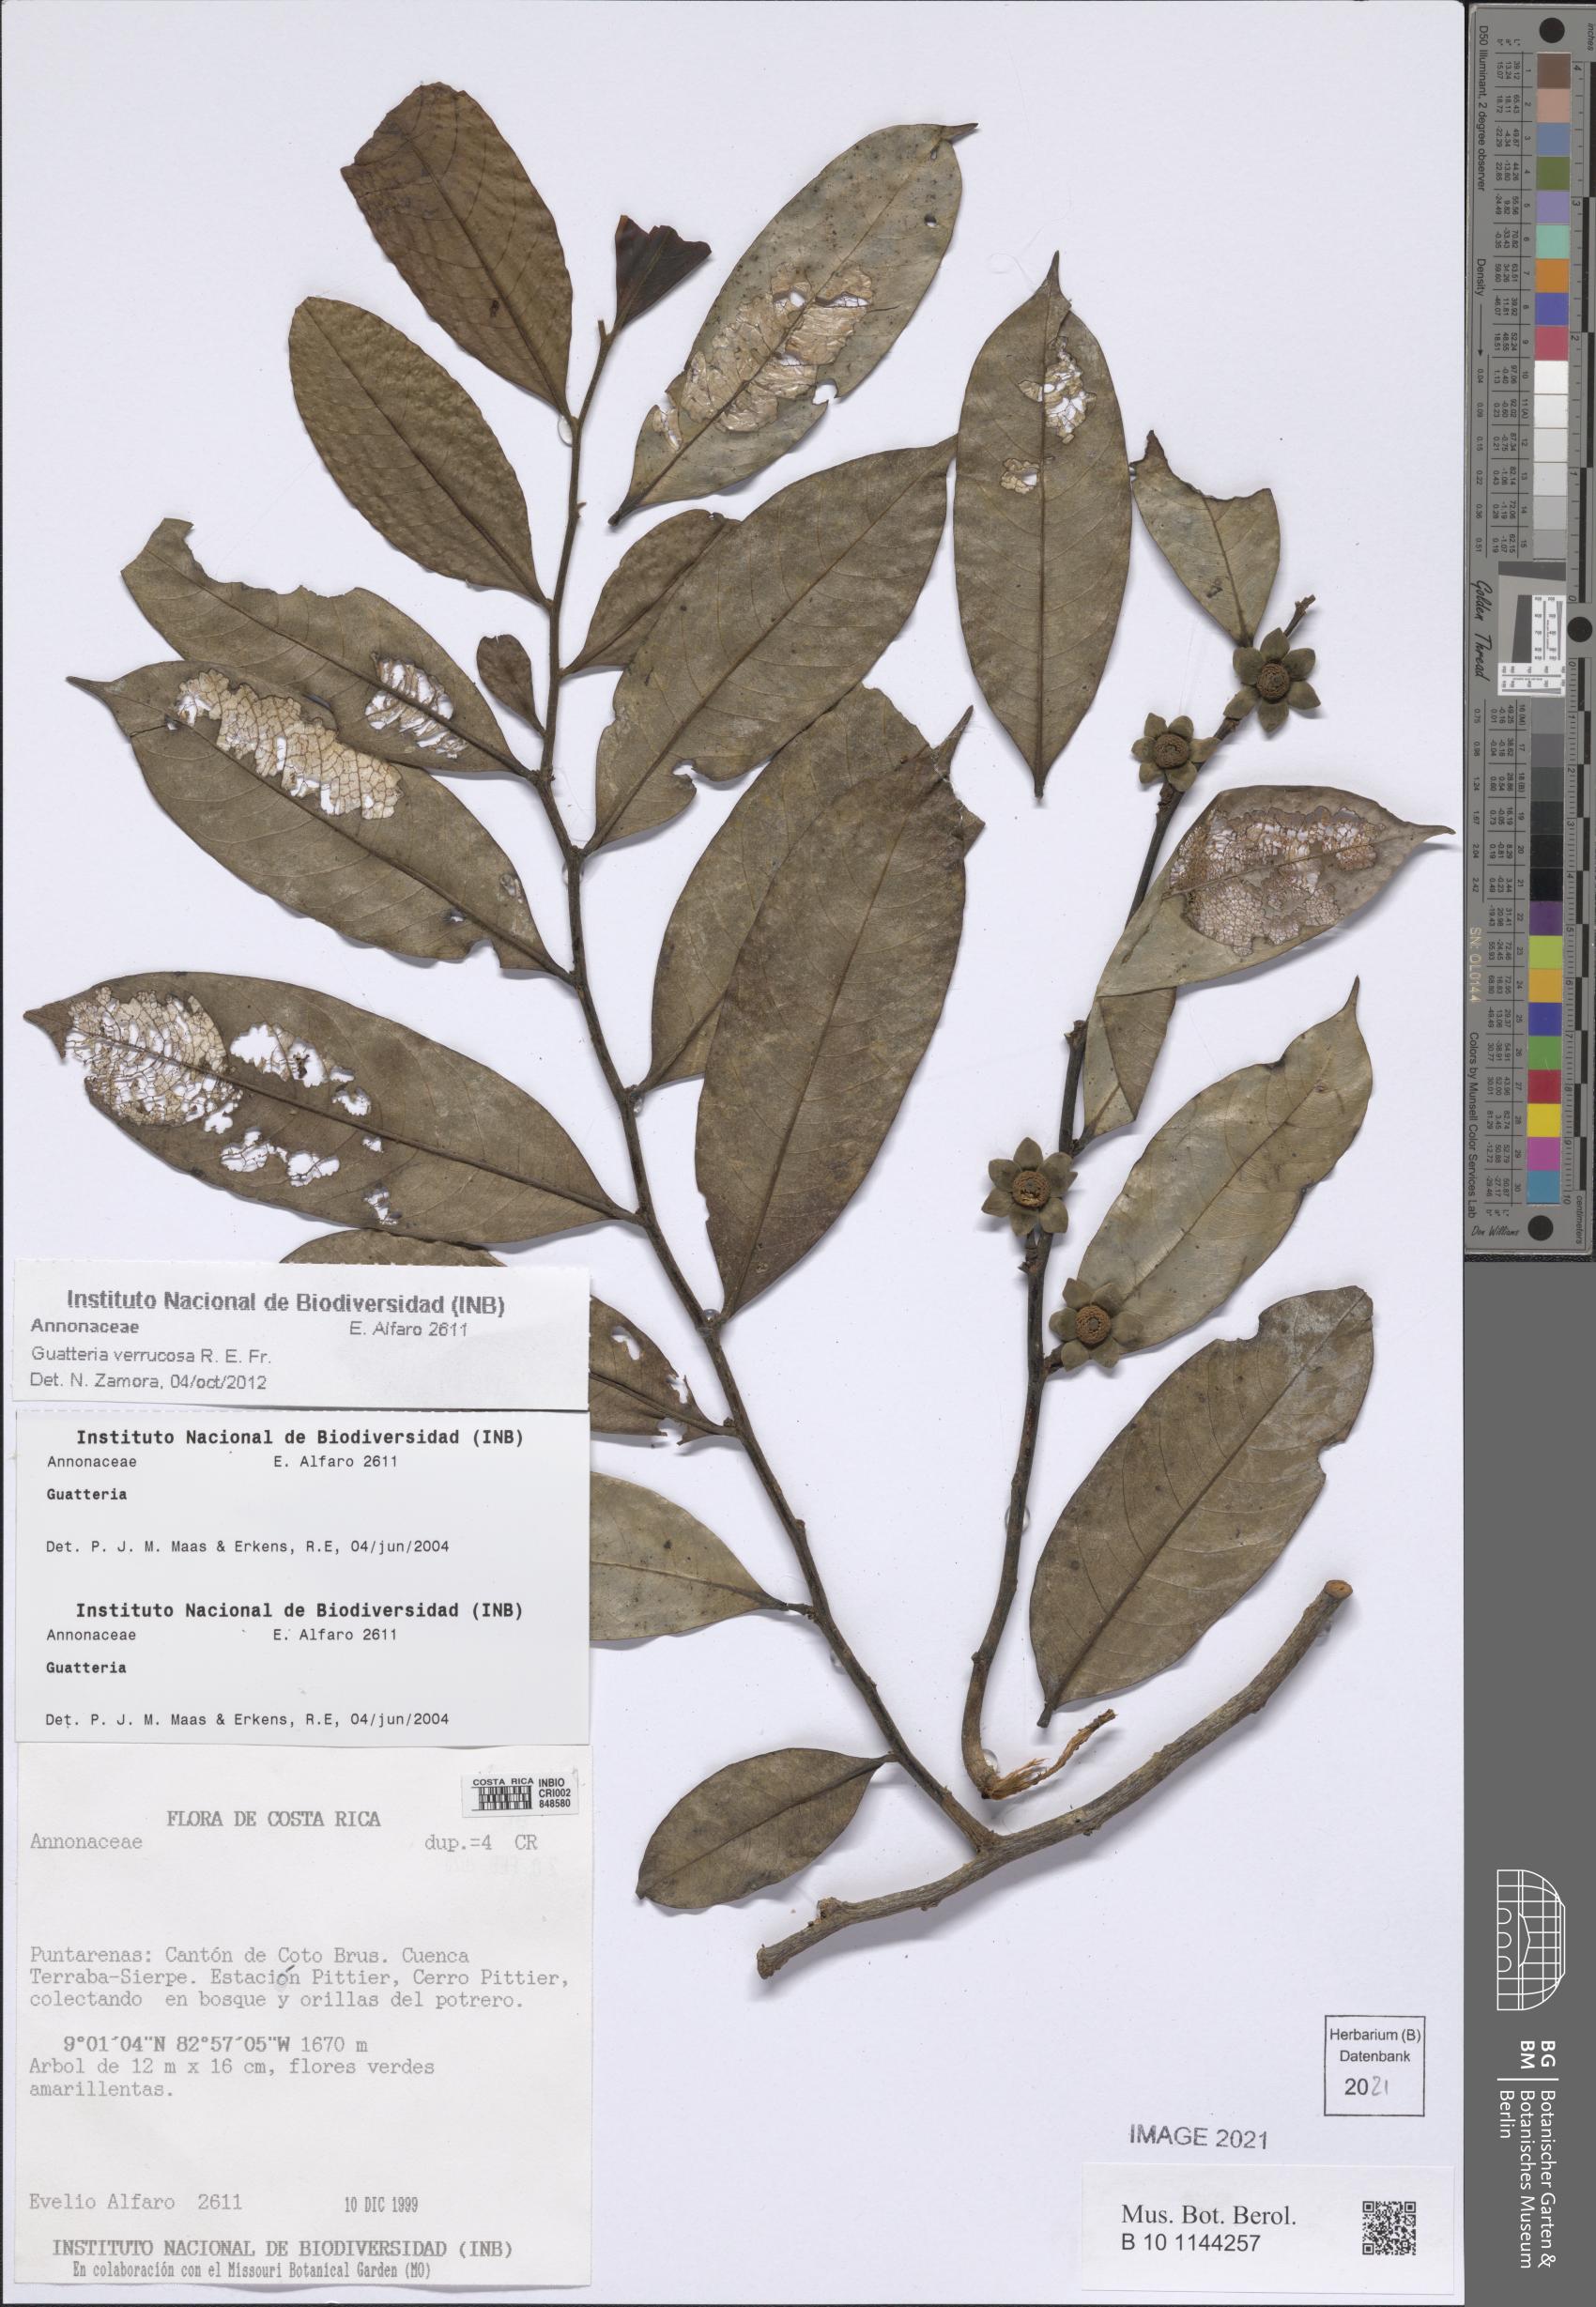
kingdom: Plantae
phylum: Tracheophyta
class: Magnoliopsida
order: Magnoliales
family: Annonaceae
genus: Guatteria
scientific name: Guatteria verrucosa
